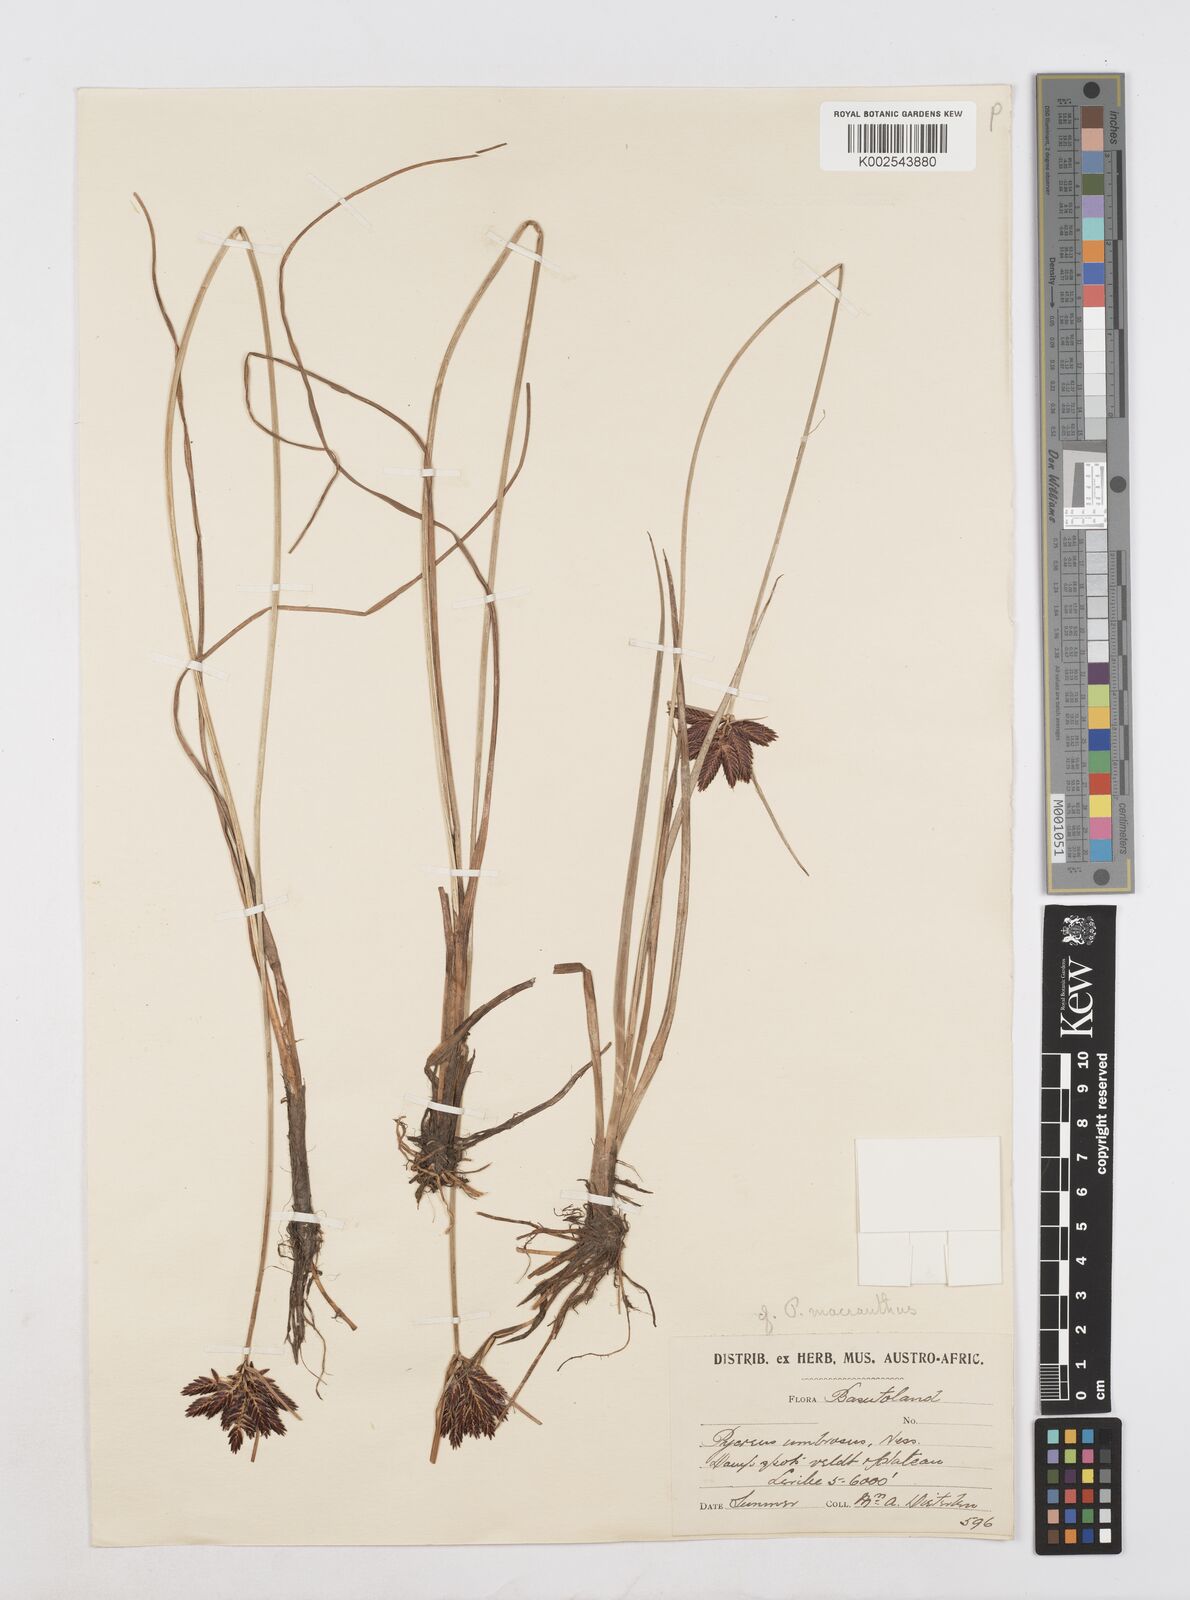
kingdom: Plantae
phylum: Tracheophyta
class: Liliopsida
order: Poales
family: Cyperaceae
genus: Cyperus
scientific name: Cyperus nigricans
